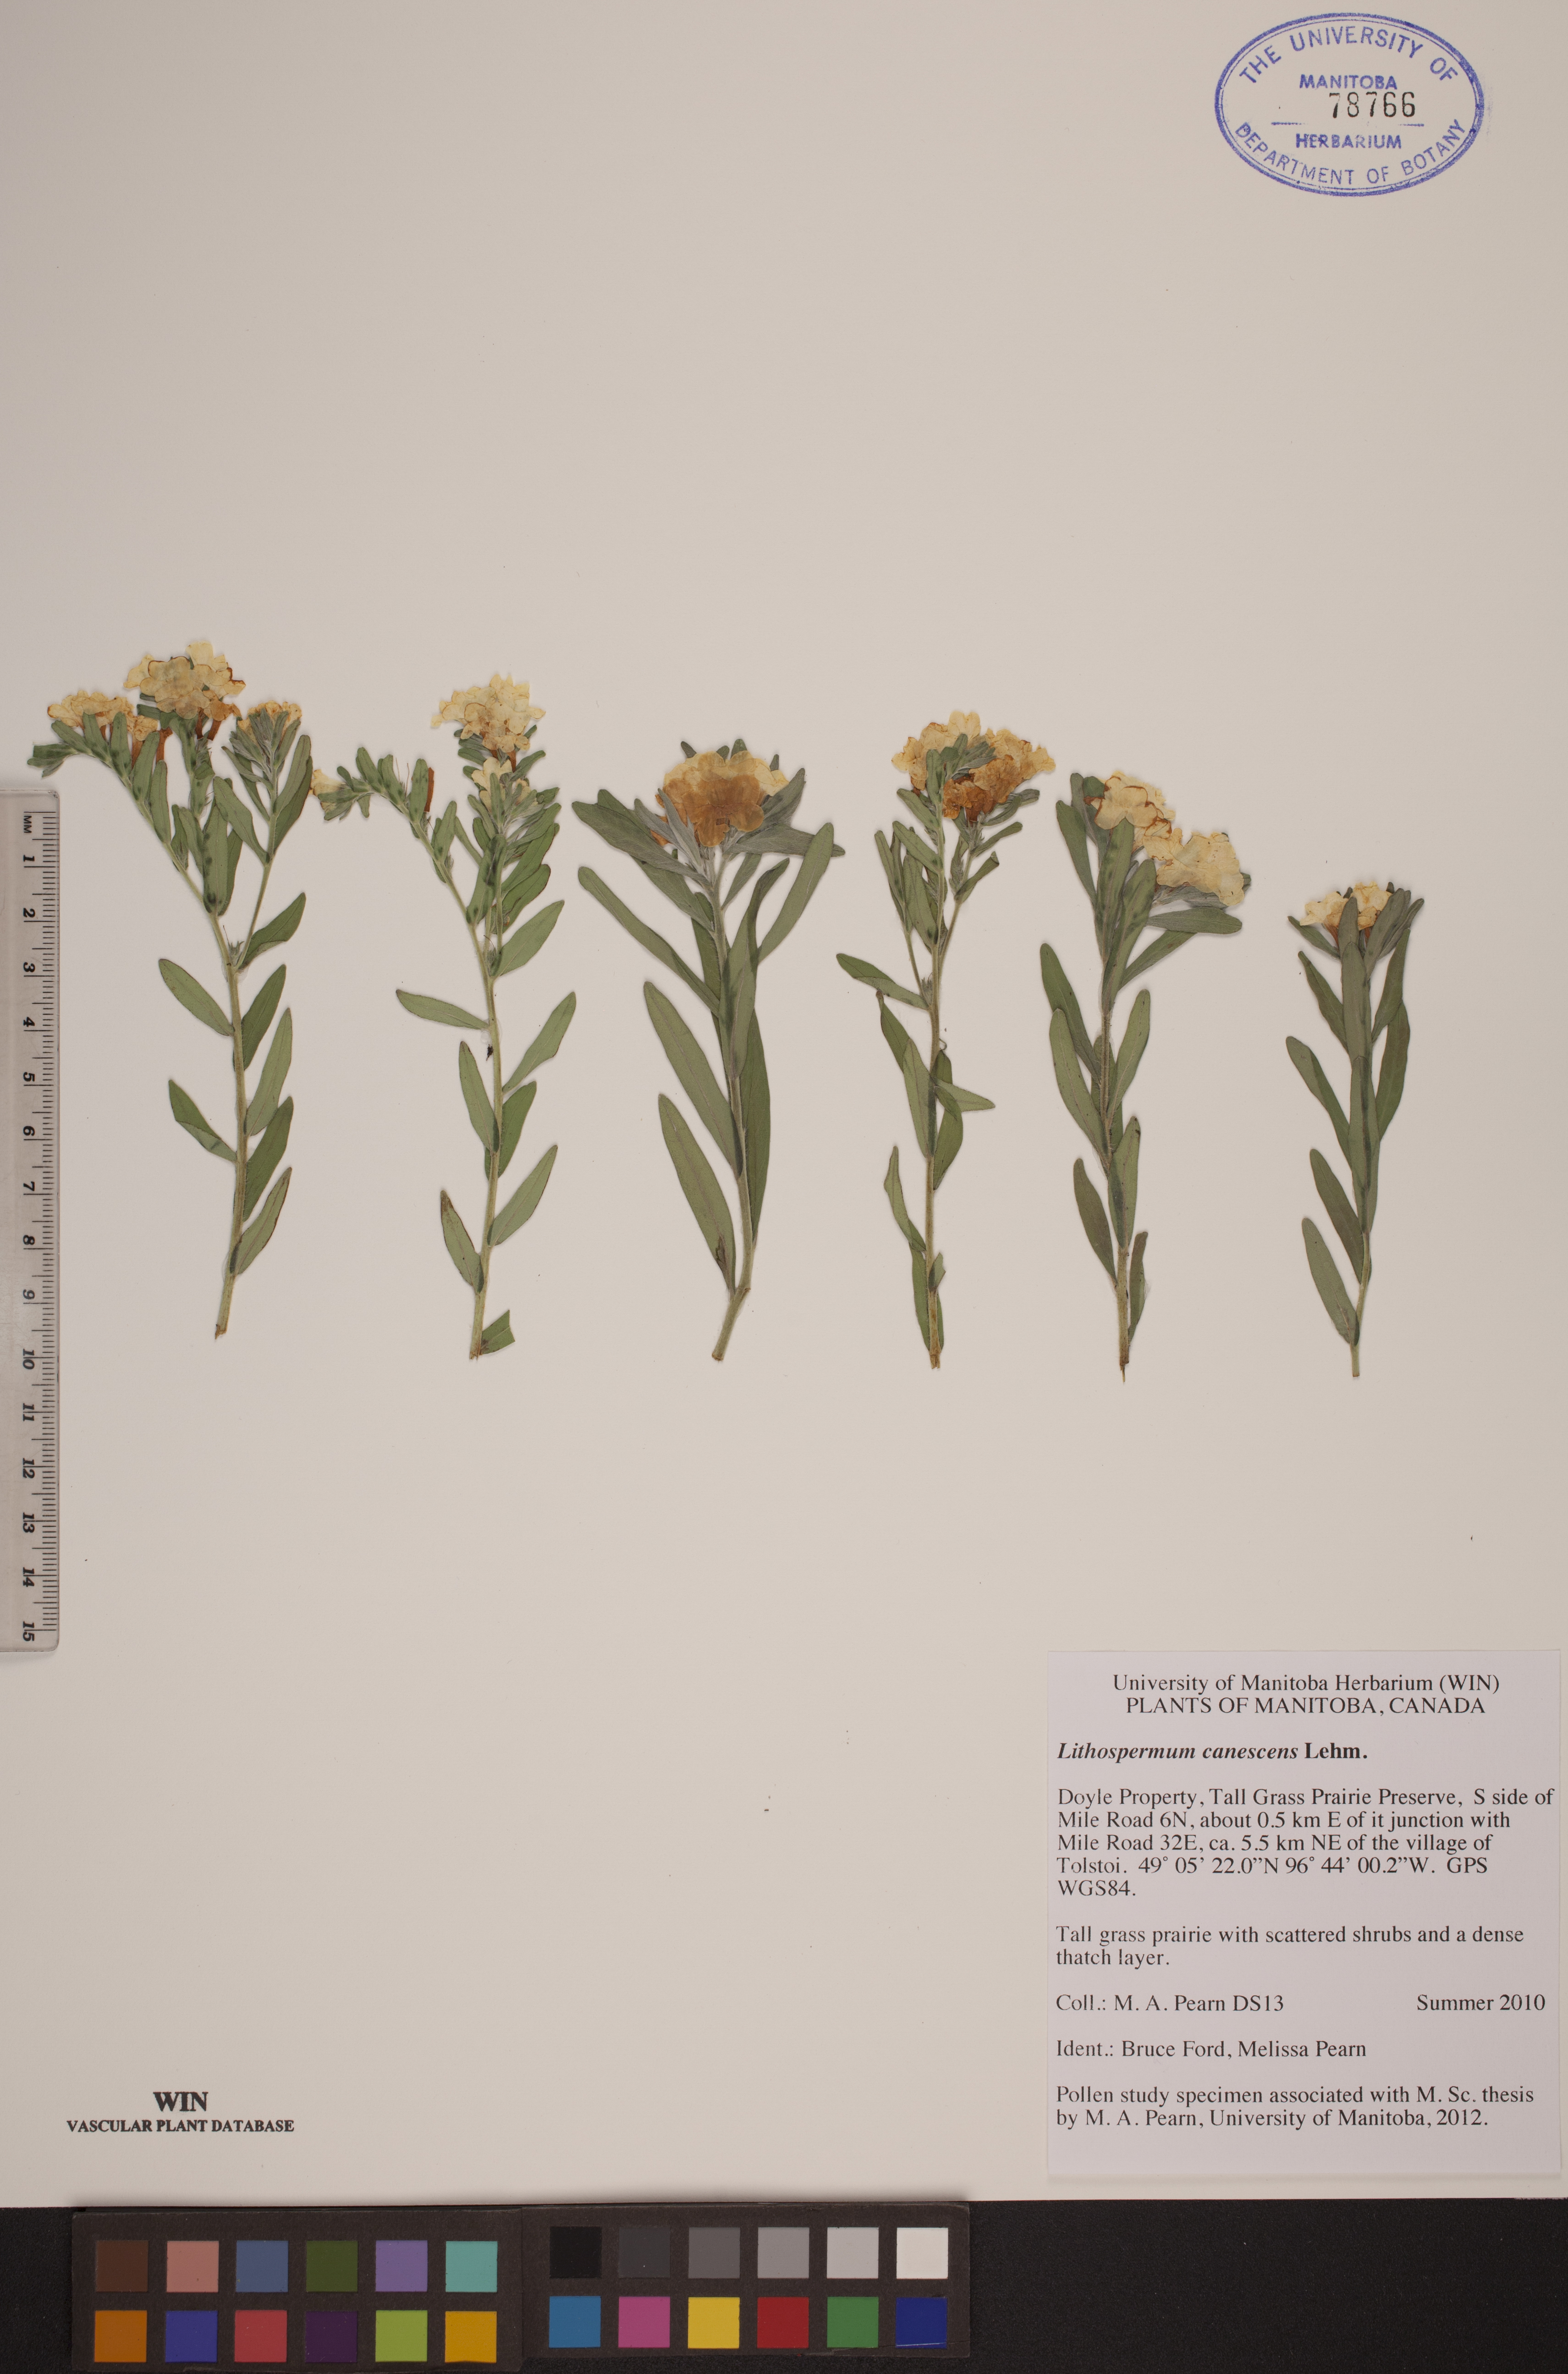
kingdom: Plantae
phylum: Tracheophyta
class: Magnoliopsida
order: Boraginales
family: Boraginaceae
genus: Lithospermum
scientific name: Lithospermum canescens
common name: Hoary puccoon
